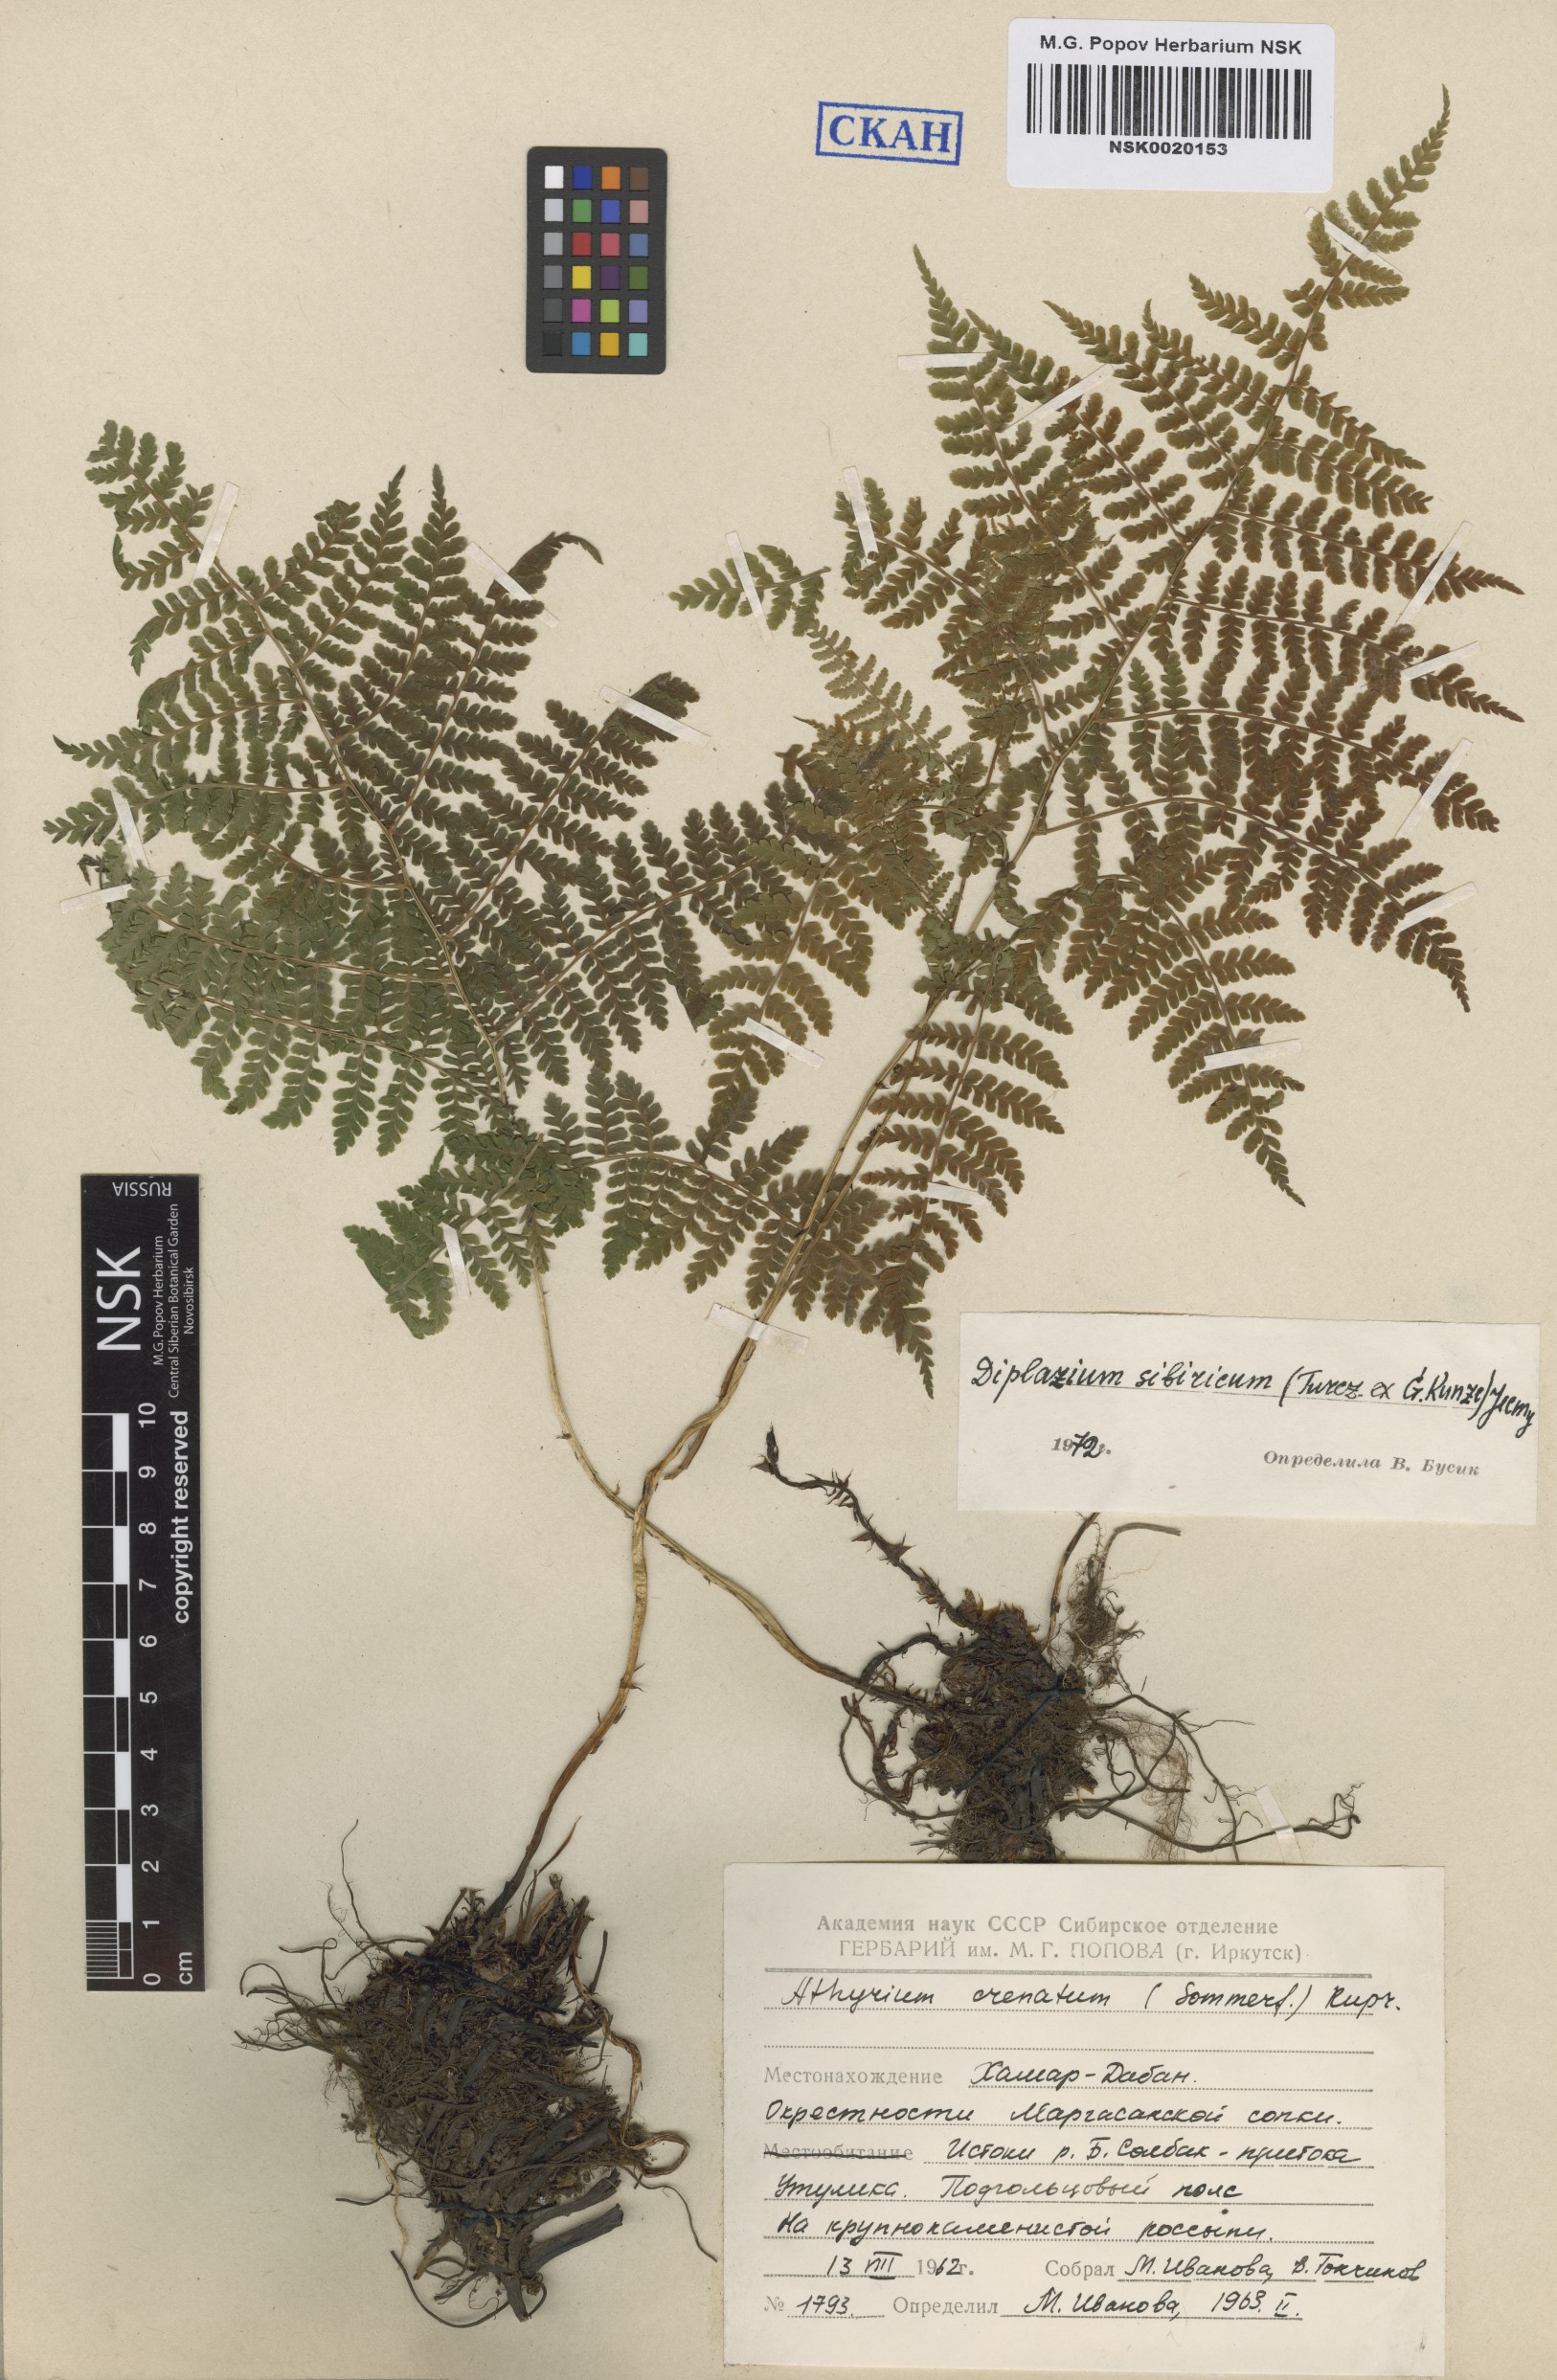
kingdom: Plantae
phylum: Tracheophyta
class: Polypodiopsida
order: Polypodiales
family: Athyriaceae
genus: Diplazium
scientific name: Diplazium sibiricum
